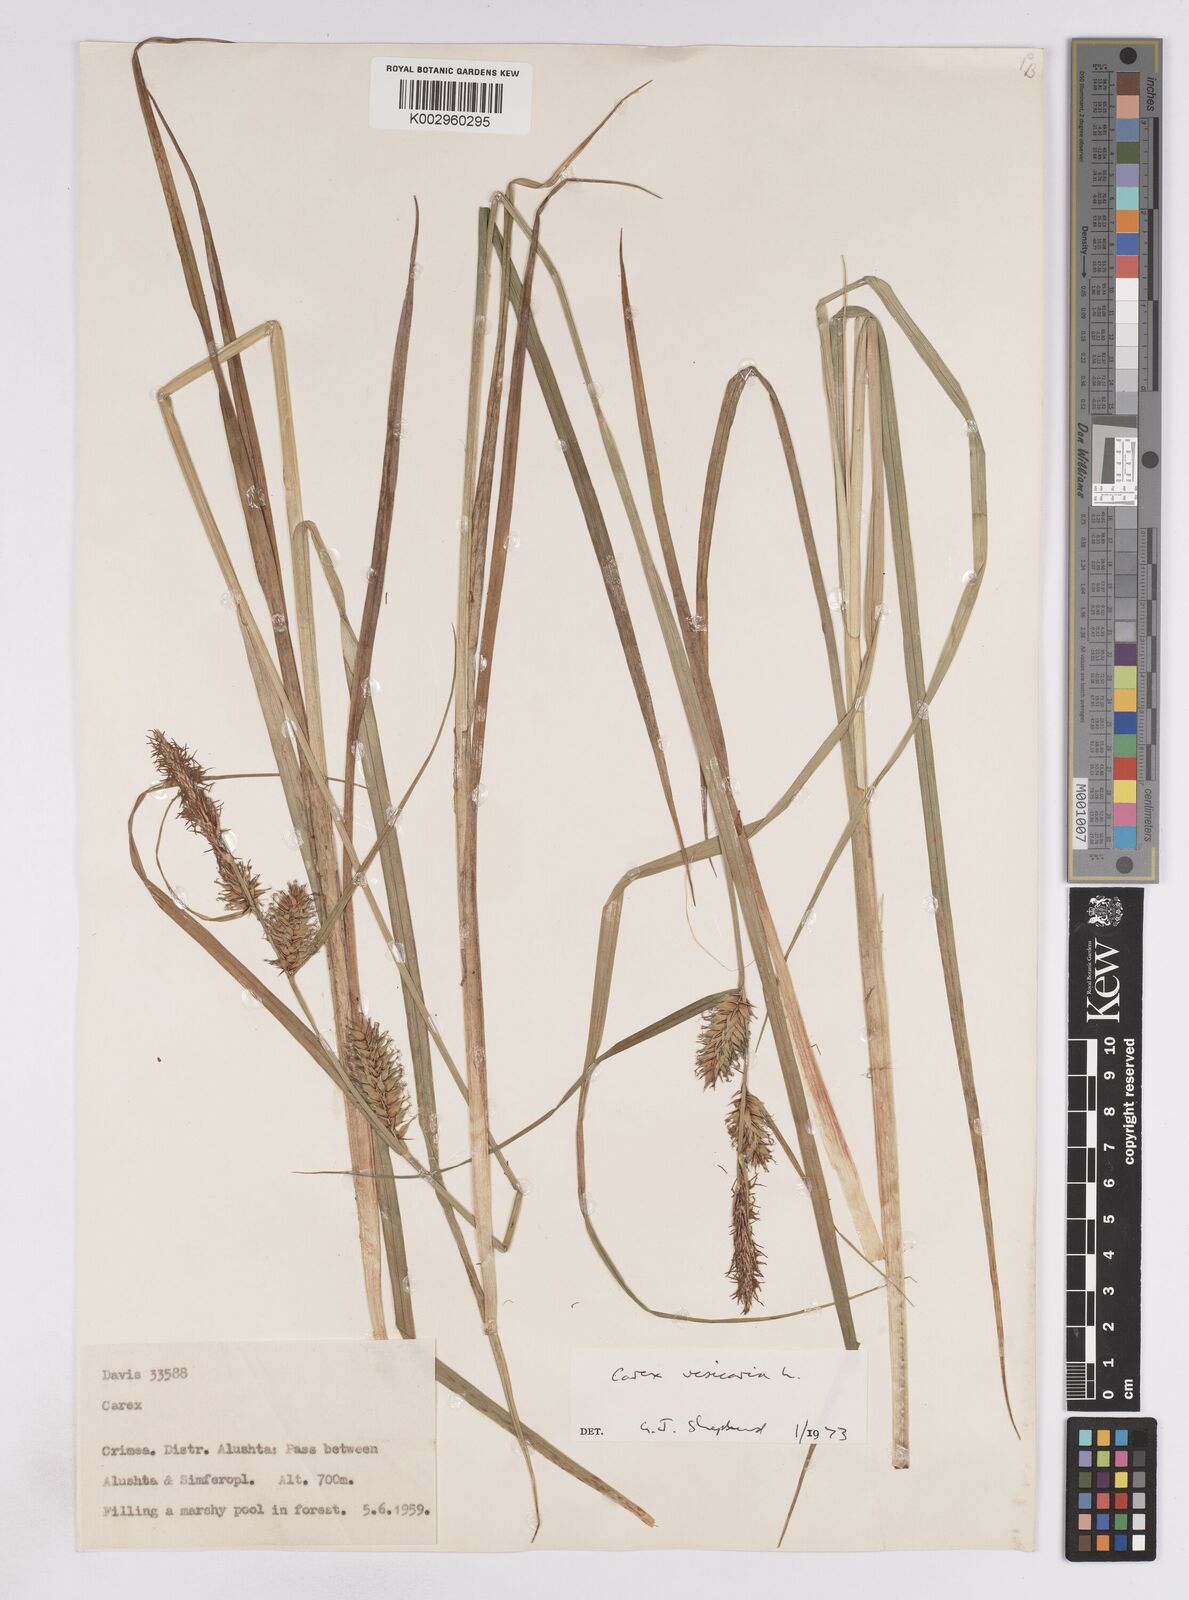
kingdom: Plantae
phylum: Tracheophyta
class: Liliopsida
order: Poales
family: Cyperaceae
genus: Carex
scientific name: Carex vesicaria
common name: Bladder-sedge
